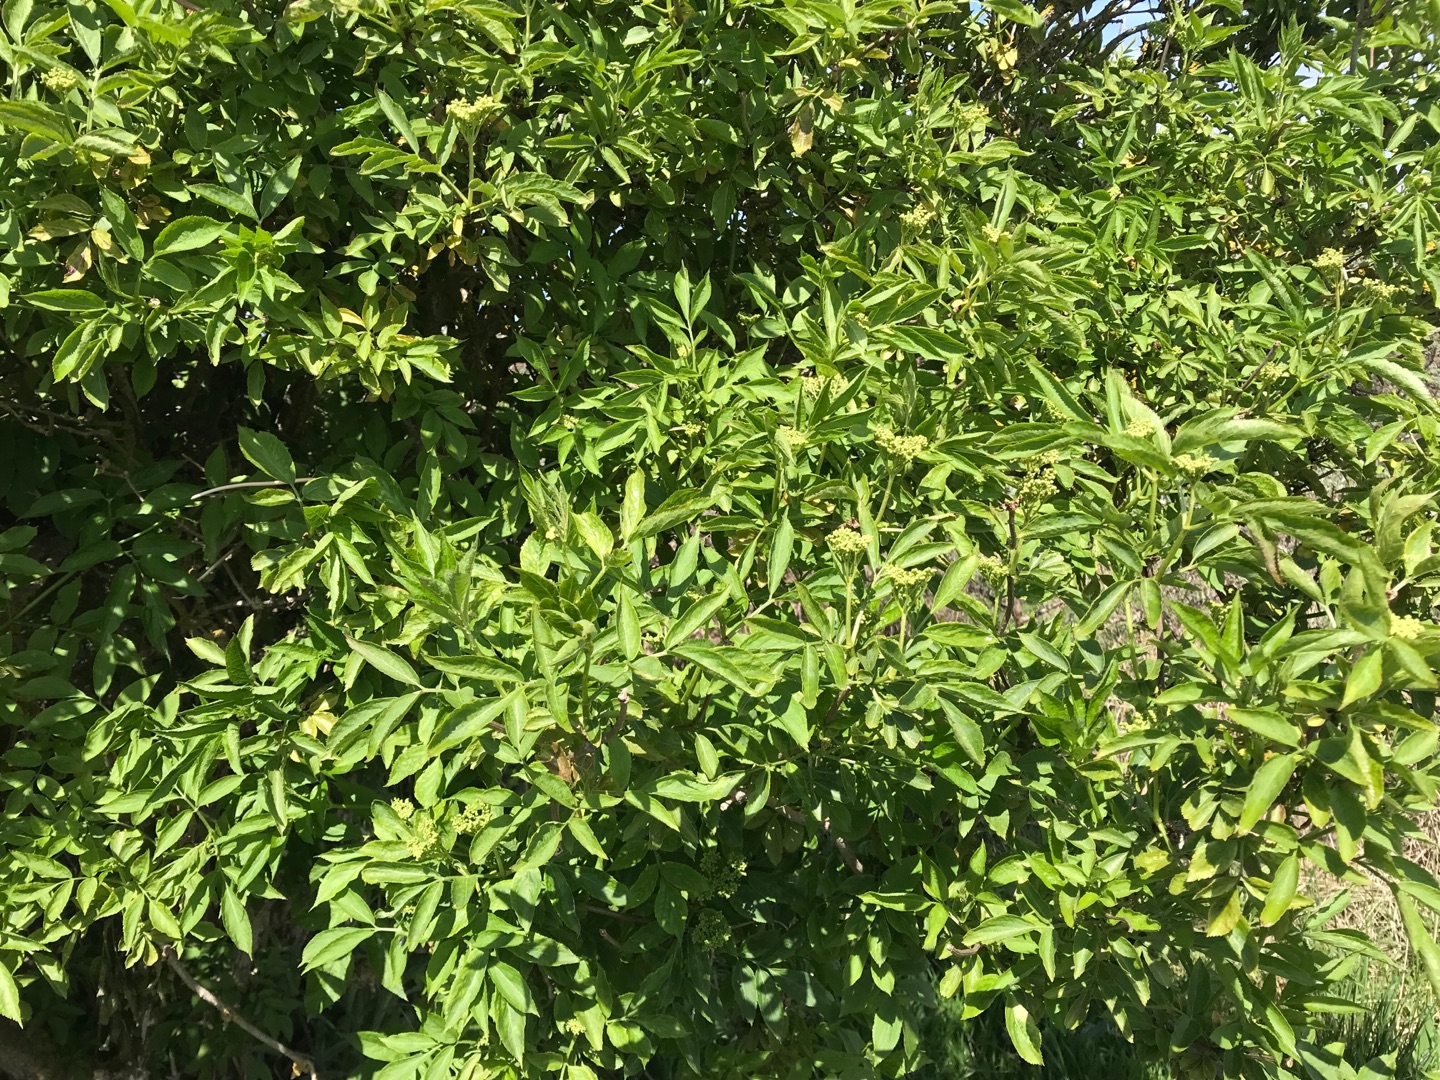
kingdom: Plantae
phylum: Tracheophyta
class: Magnoliopsida
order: Dipsacales
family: Viburnaceae
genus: Sambucus
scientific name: Sambucus nigra
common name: Almindelig hyld
